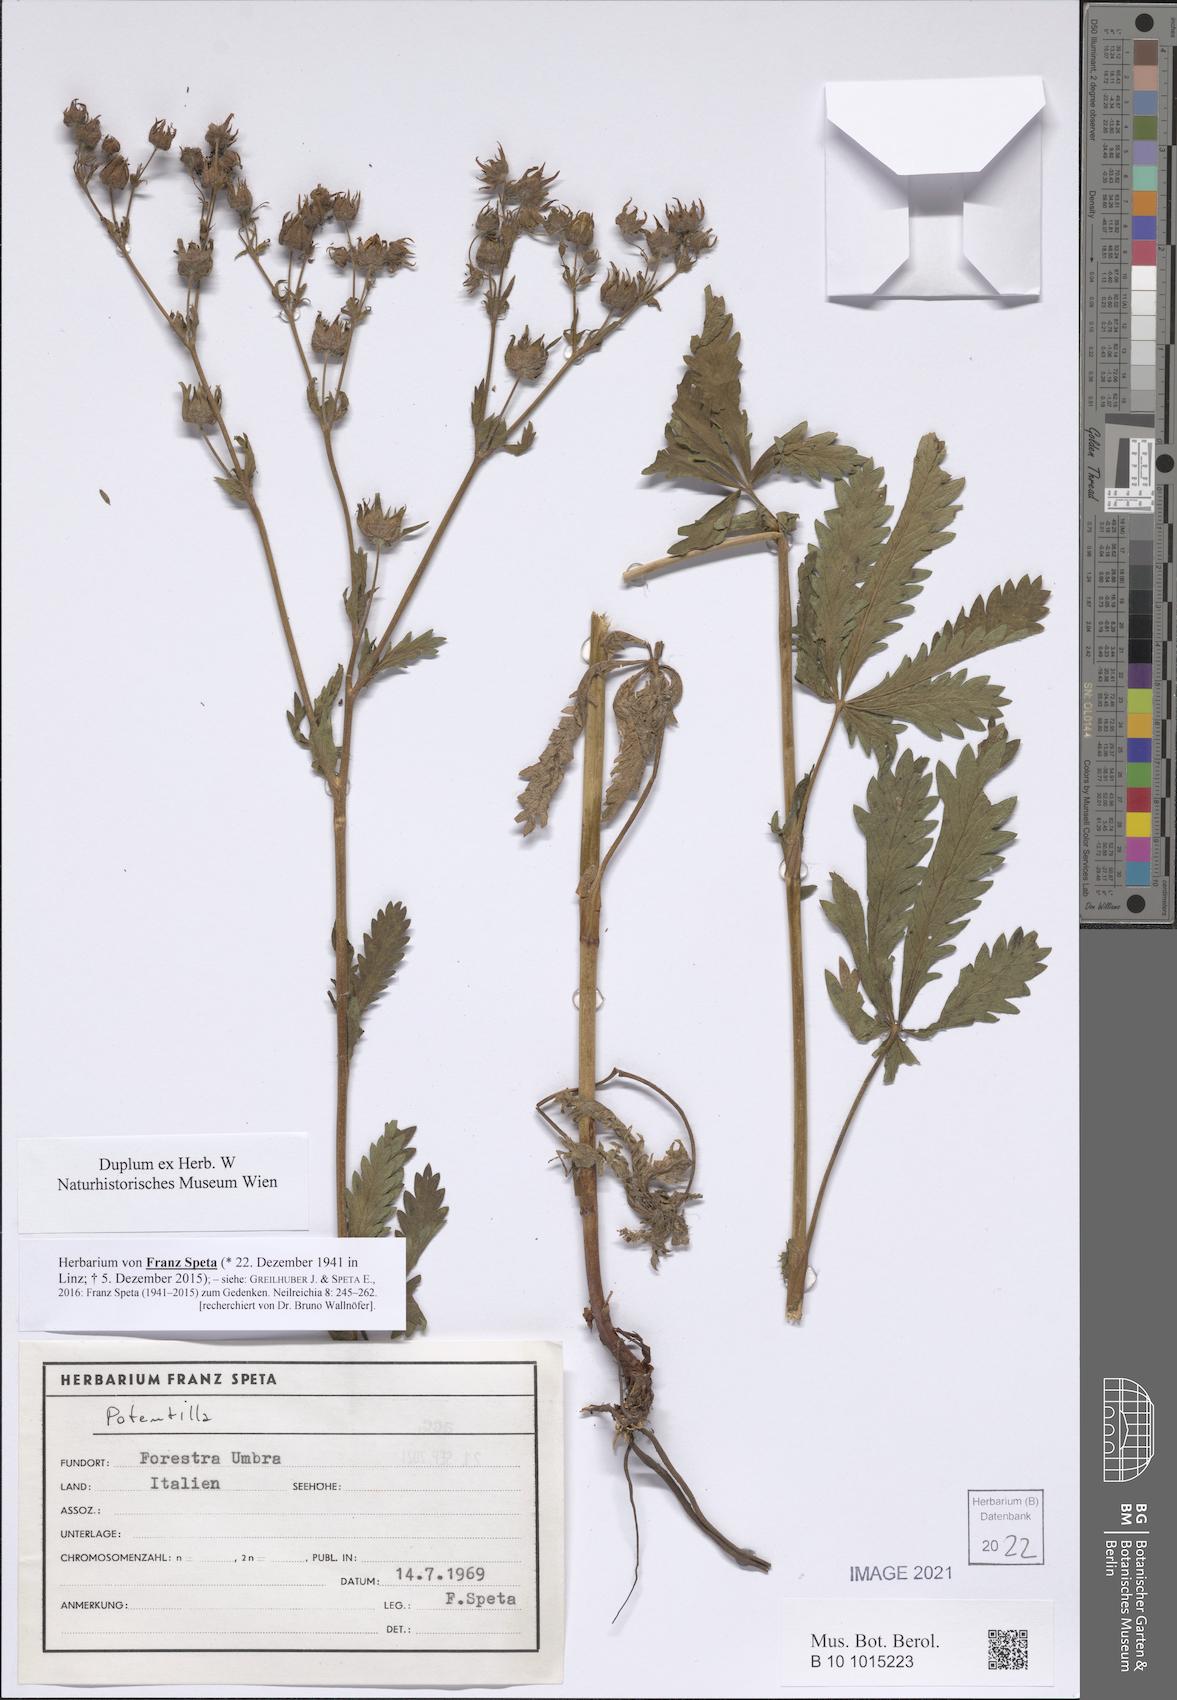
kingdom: Plantae
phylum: Tracheophyta
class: Magnoliopsida
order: Rosales
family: Rosaceae
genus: Potentilla
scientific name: Potentilla
